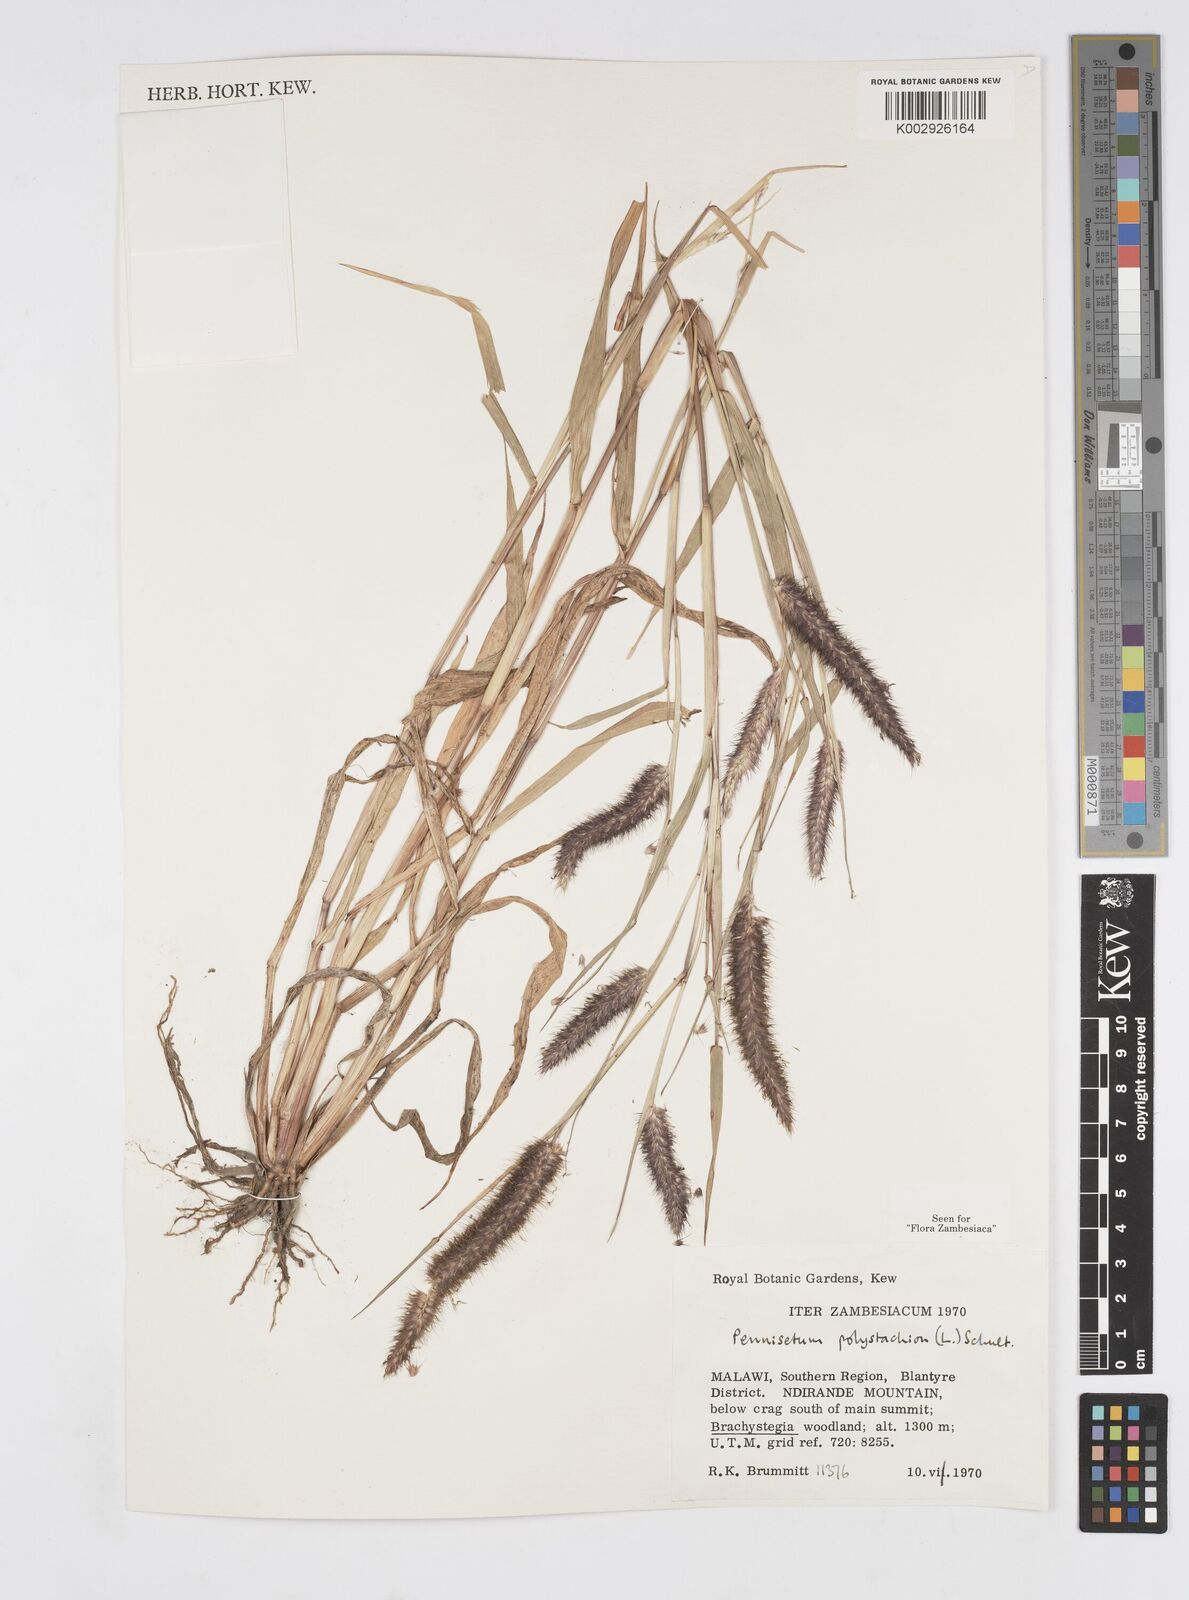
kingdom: Plantae
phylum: Tracheophyta
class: Liliopsida
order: Poales
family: Poaceae
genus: Setaria
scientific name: Setaria parviflora
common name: Knotroot bristle-grass
